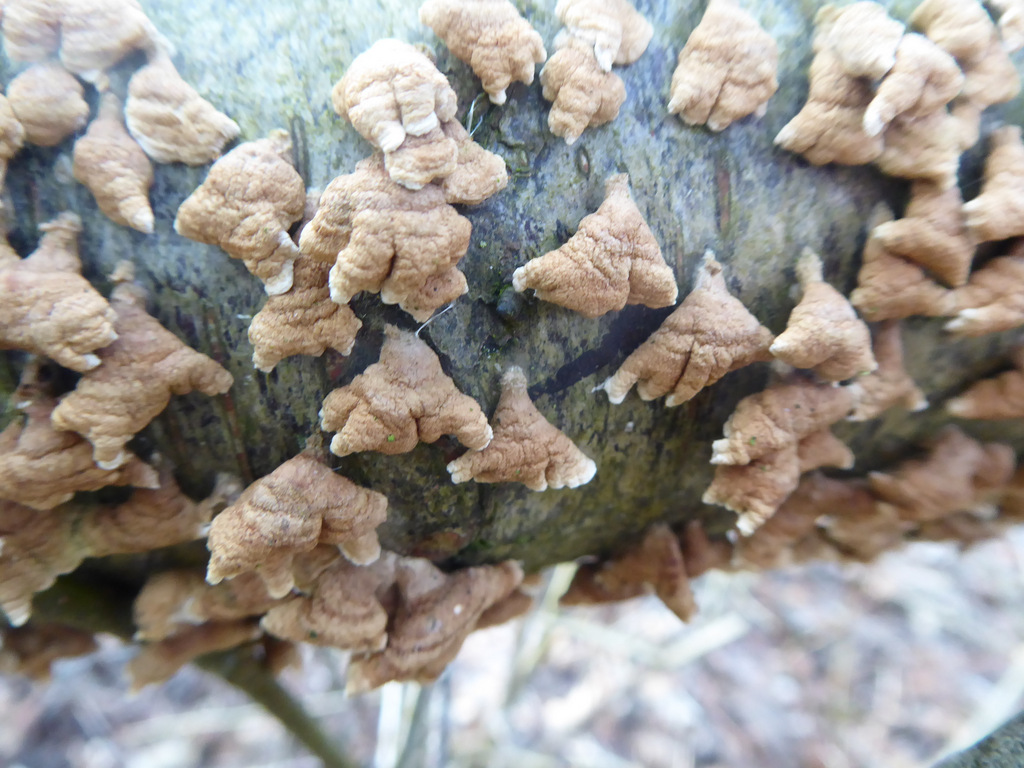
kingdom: Fungi
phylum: Basidiomycota
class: Agaricomycetes
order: Amylocorticiales
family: Amylocorticiaceae
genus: Plicaturopsis
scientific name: Plicaturopsis crispa
